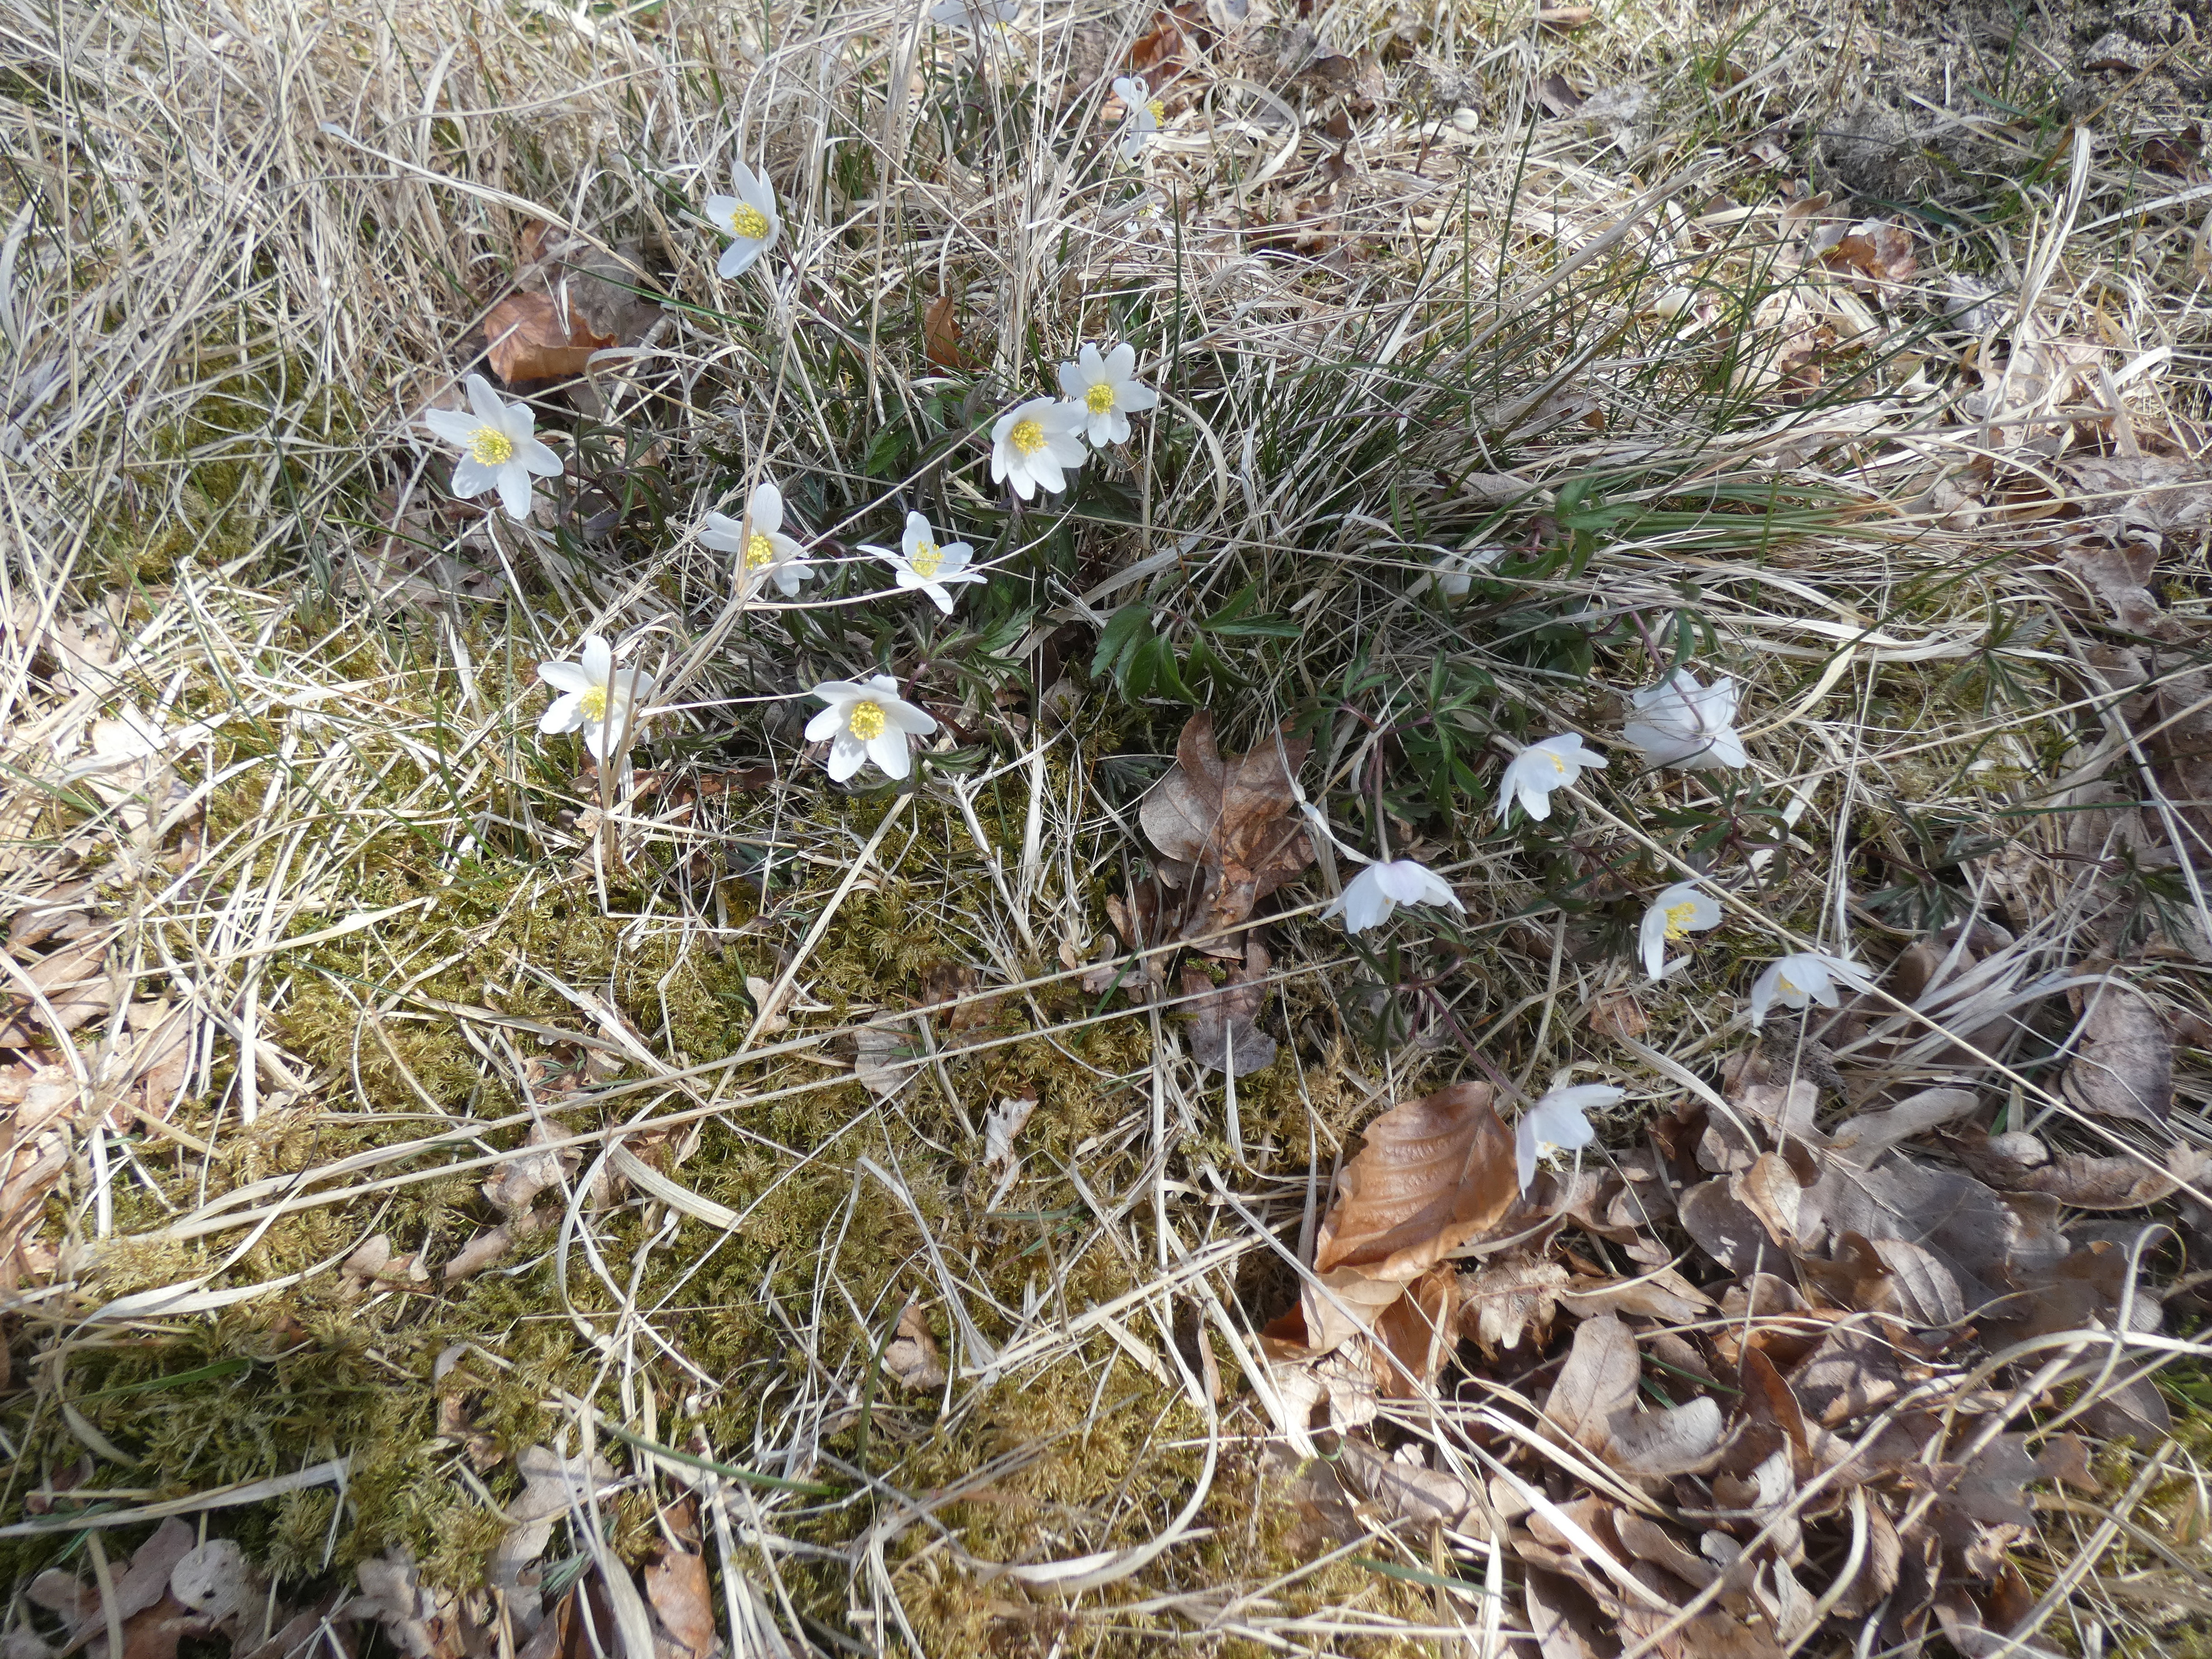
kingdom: Plantae
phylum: Tracheophyta
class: Magnoliopsida
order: Ranunculales
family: Ranunculaceae
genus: Anemone
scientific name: Anemone nemorosa
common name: Hvid anemone
